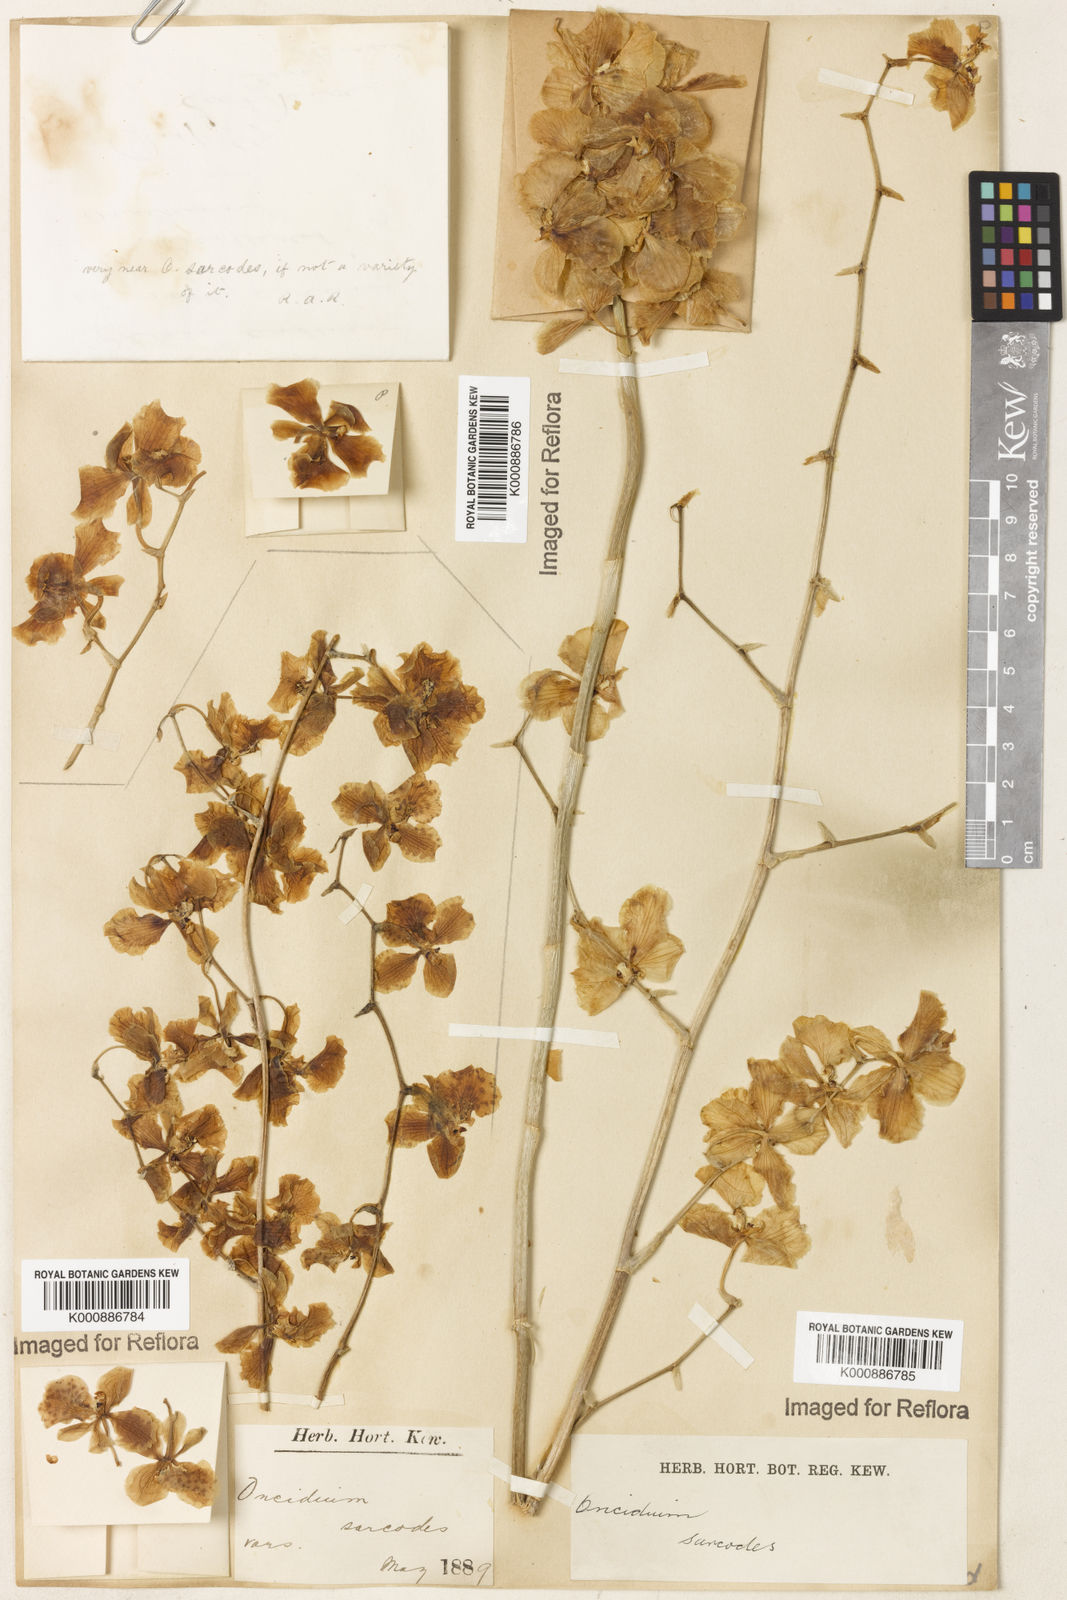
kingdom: Plantae
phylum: Tracheophyta
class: Liliopsida
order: Asparagales
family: Orchidaceae
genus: Gomesa
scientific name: Gomesa sarcodes
